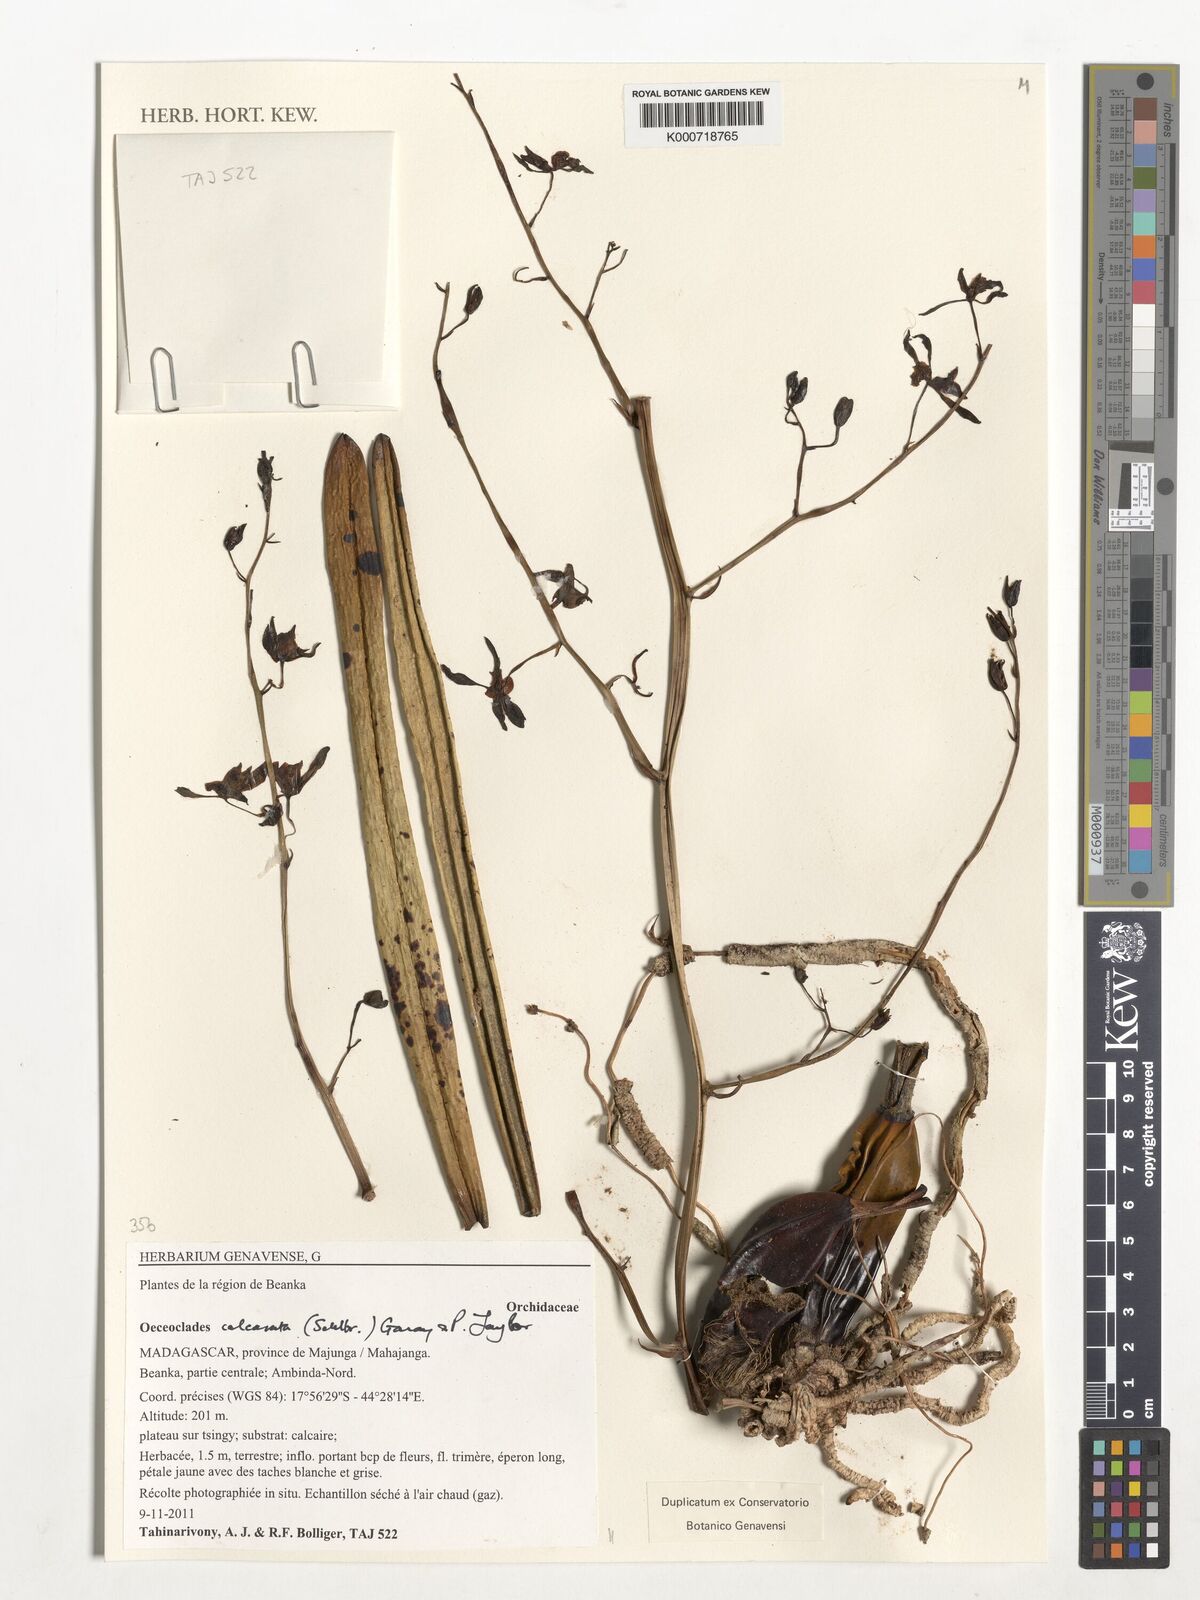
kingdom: Plantae
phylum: Tracheophyta
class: Liliopsida
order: Asparagales
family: Orchidaceae
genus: Eulophia
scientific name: Eulophia calcarata
